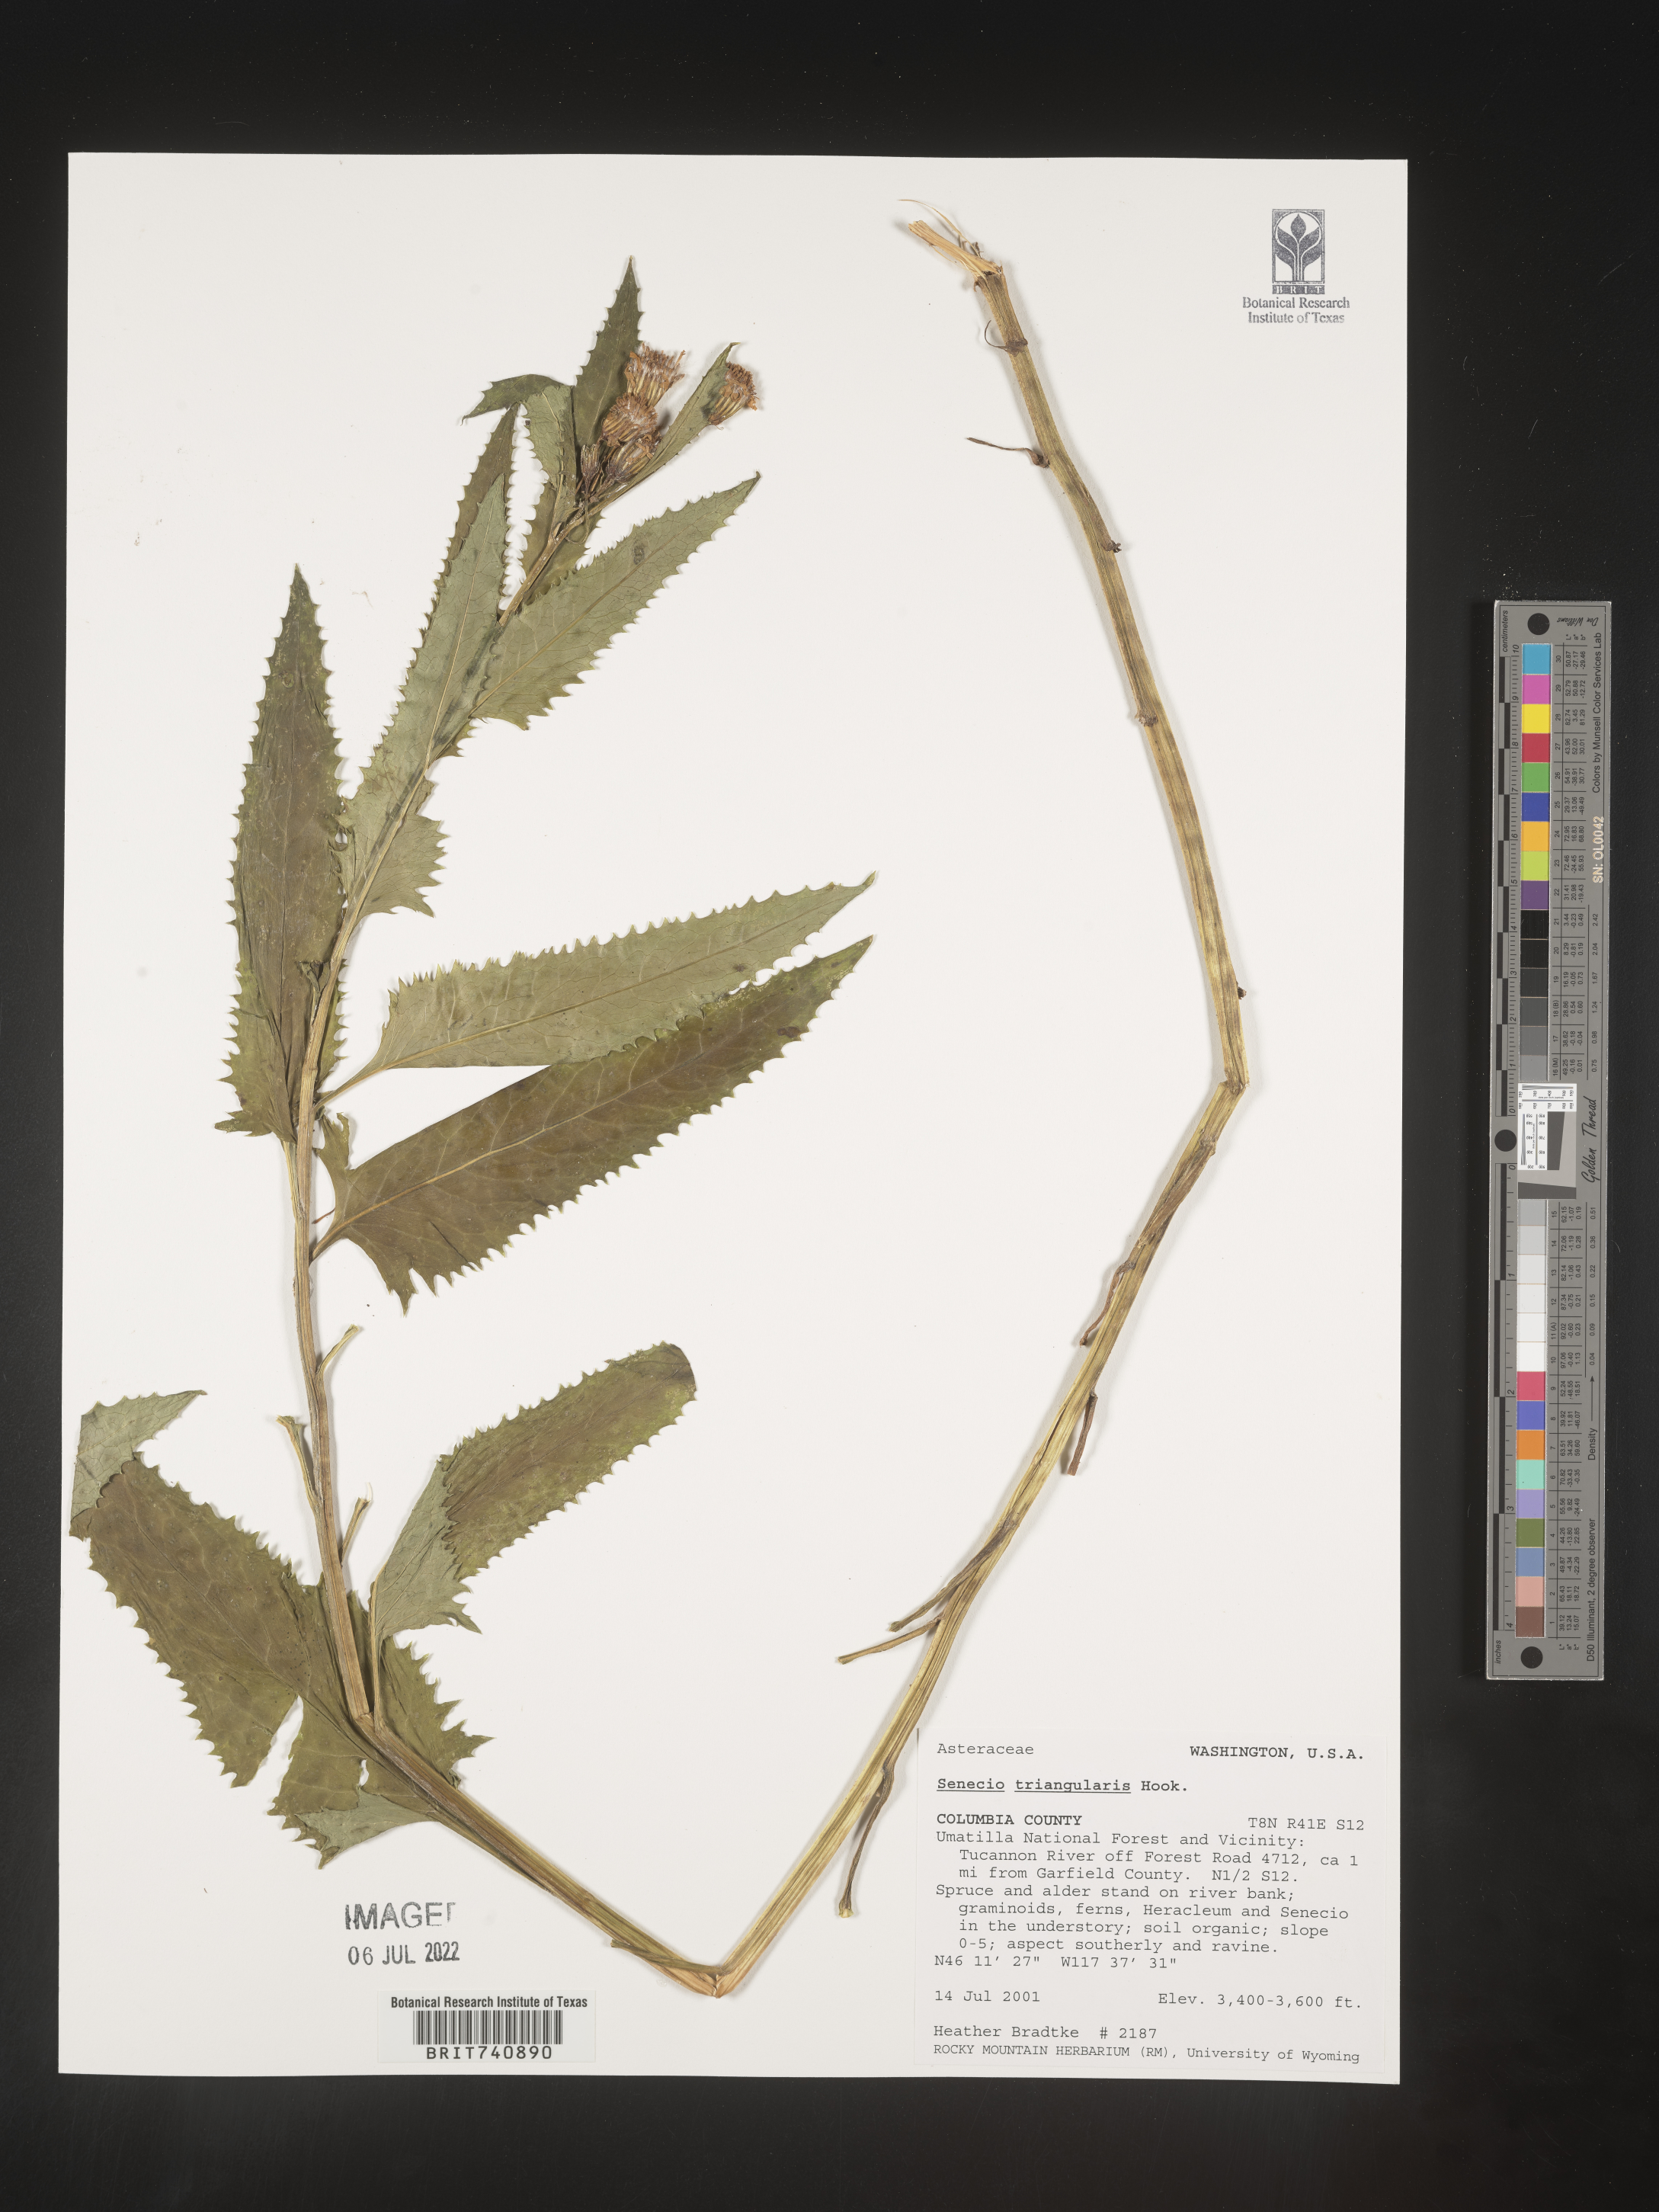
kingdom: Plantae
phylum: Tracheophyta
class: Magnoliopsida
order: Asterales
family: Asteraceae
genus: Senecio
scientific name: Senecio triangularis
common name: Arrowleaf butterweed
